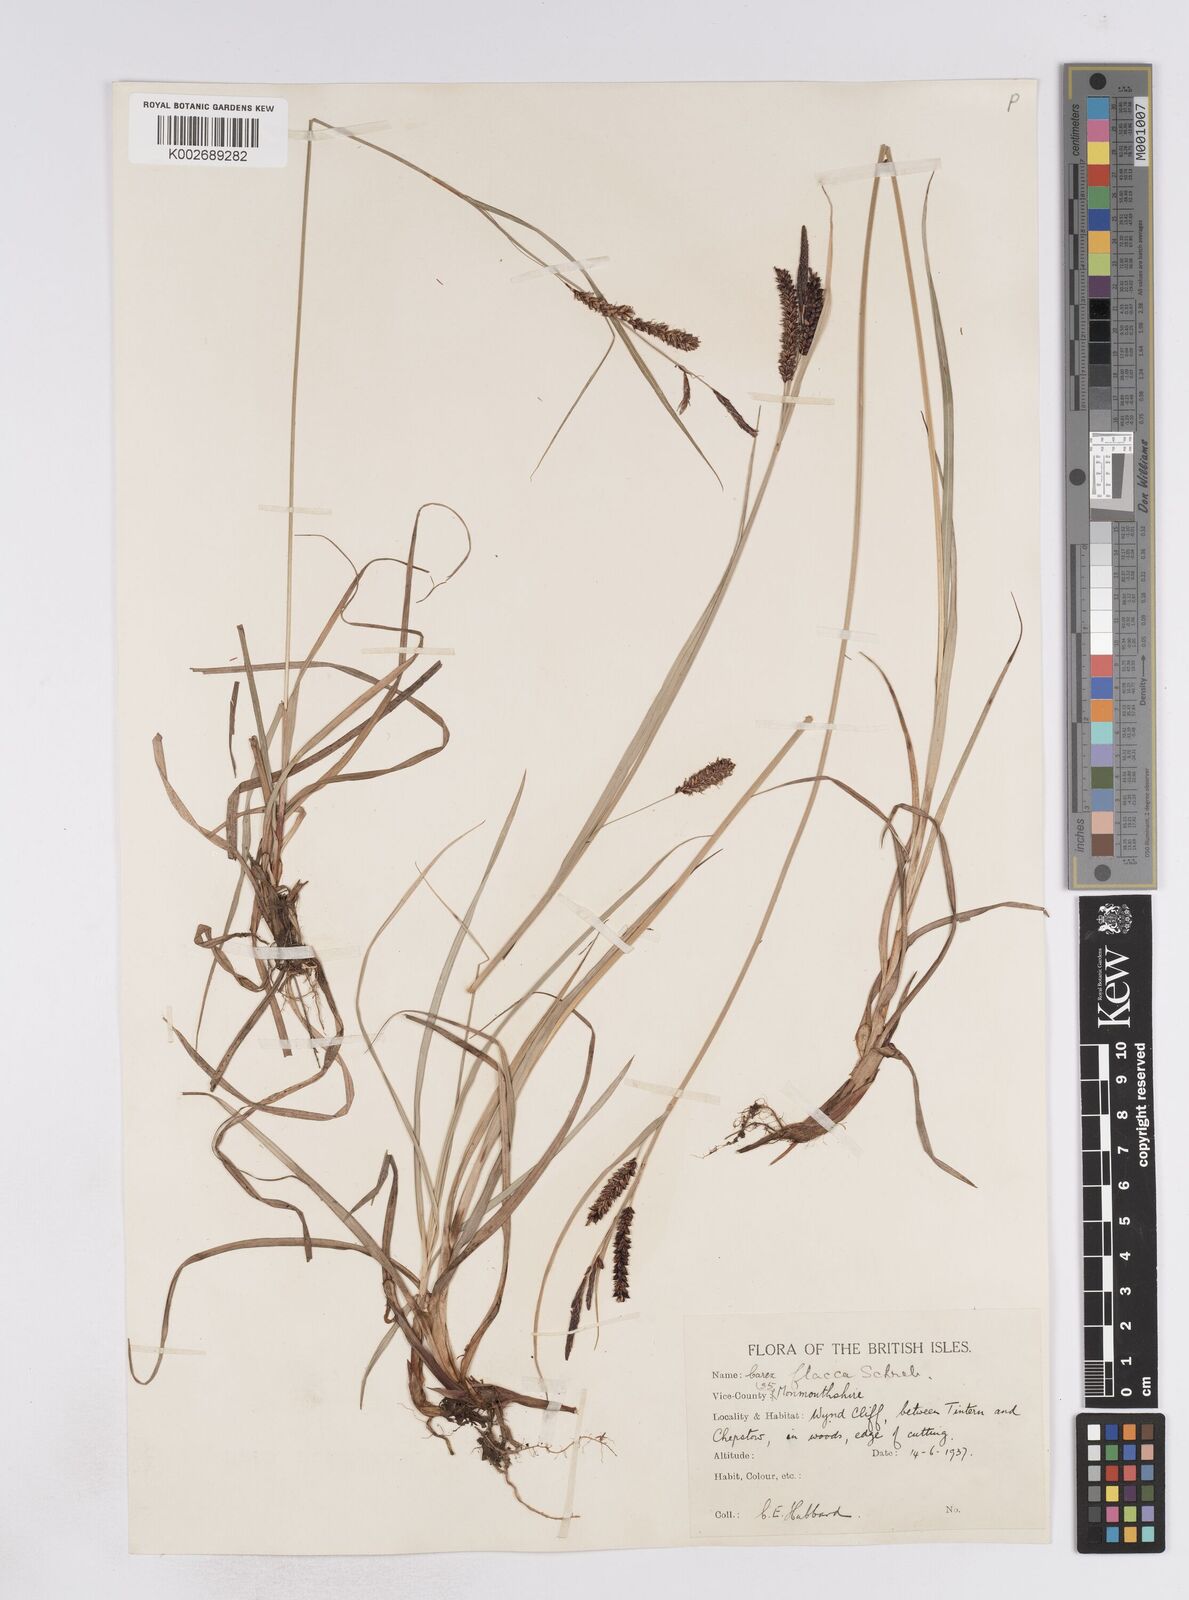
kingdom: Plantae
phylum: Tracheophyta
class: Liliopsida
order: Poales
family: Cyperaceae
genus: Carex
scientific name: Carex flacca
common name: Glaucous sedge
